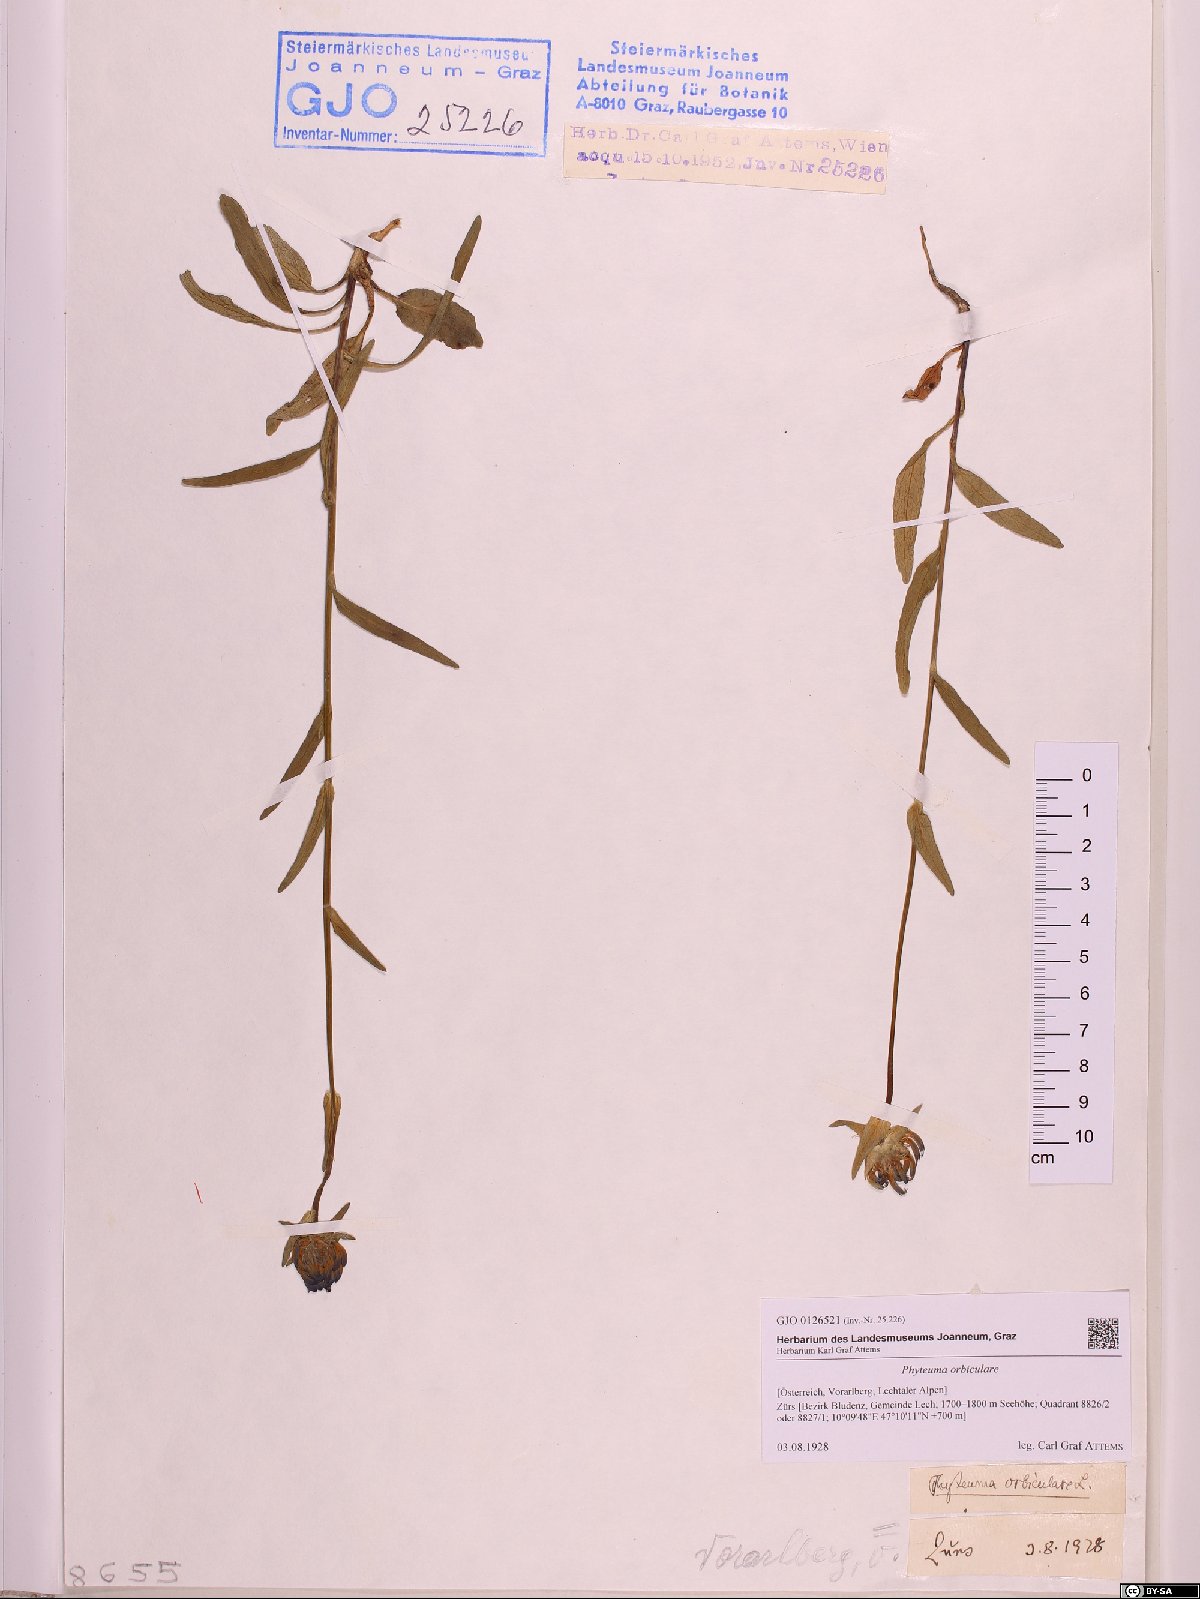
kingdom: Plantae
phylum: Tracheophyta
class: Magnoliopsida
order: Asterales
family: Campanulaceae
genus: Phyteuma
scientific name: Phyteuma orbiculare
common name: Round-headed rampion
